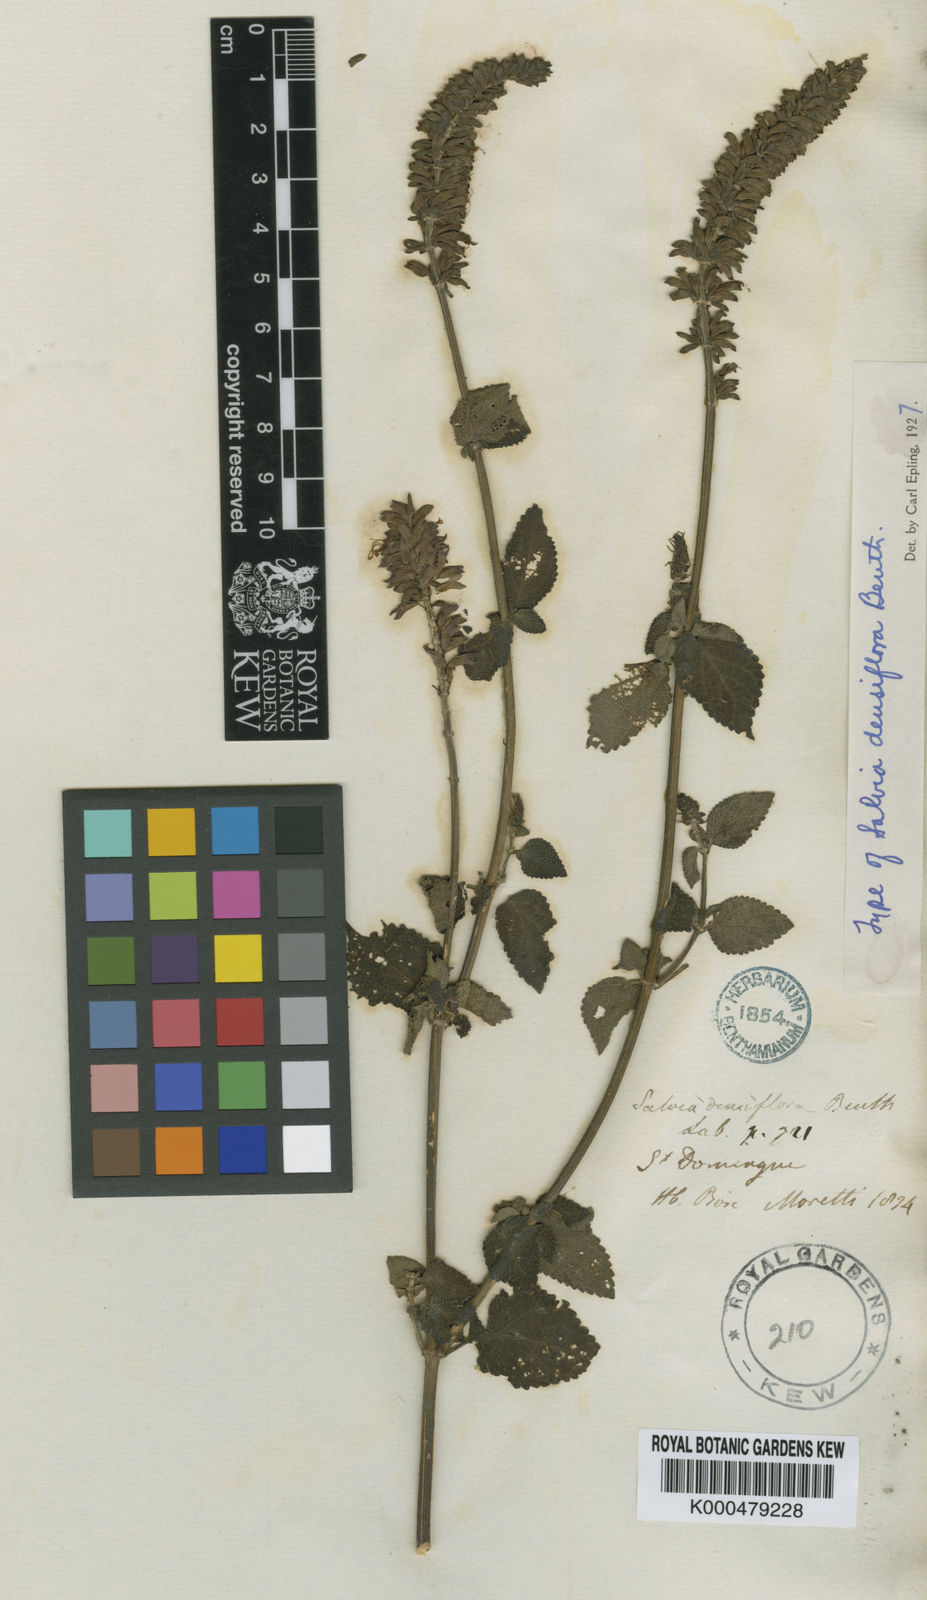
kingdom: Plantae
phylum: Tracheophyta
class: Magnoliopsida
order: Lamiales
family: Lamiaceae
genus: Salvia
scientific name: Salvia densiflora
